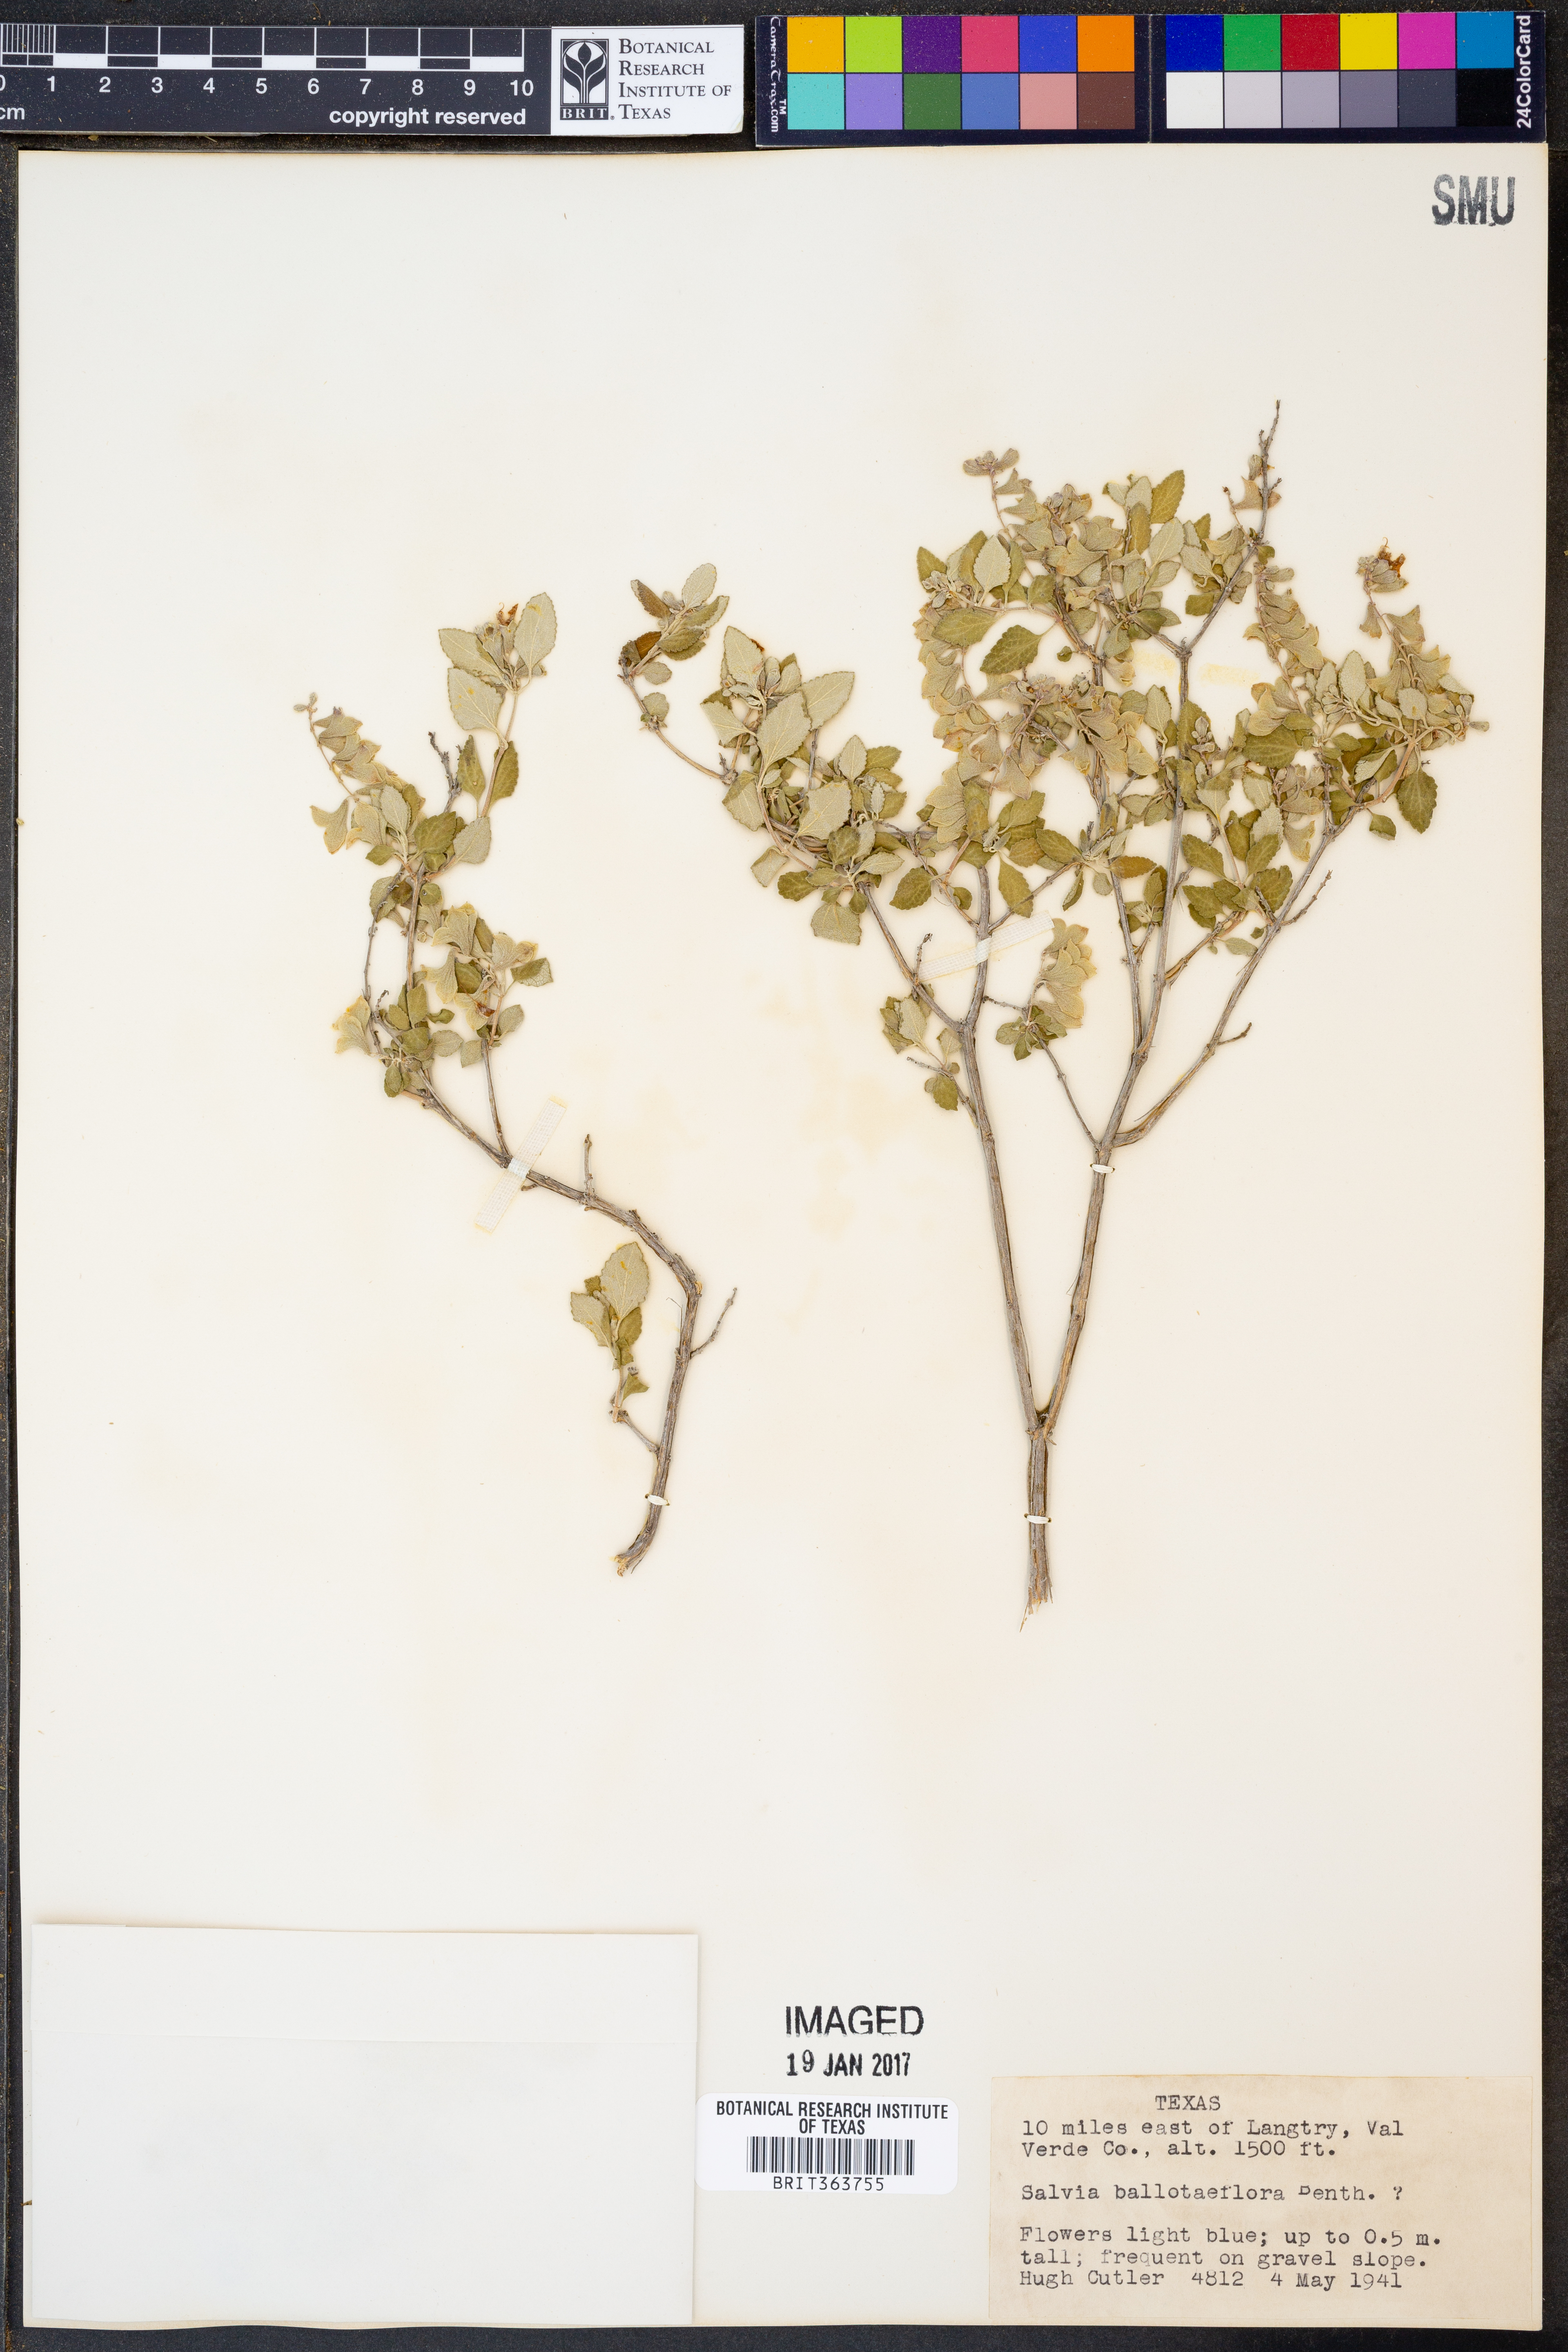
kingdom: Plantae
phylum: Tracheophyta
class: Magnoliopsida
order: Lamiales
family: Lamiaceae
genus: Salvia
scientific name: Salvia ballotiflora
